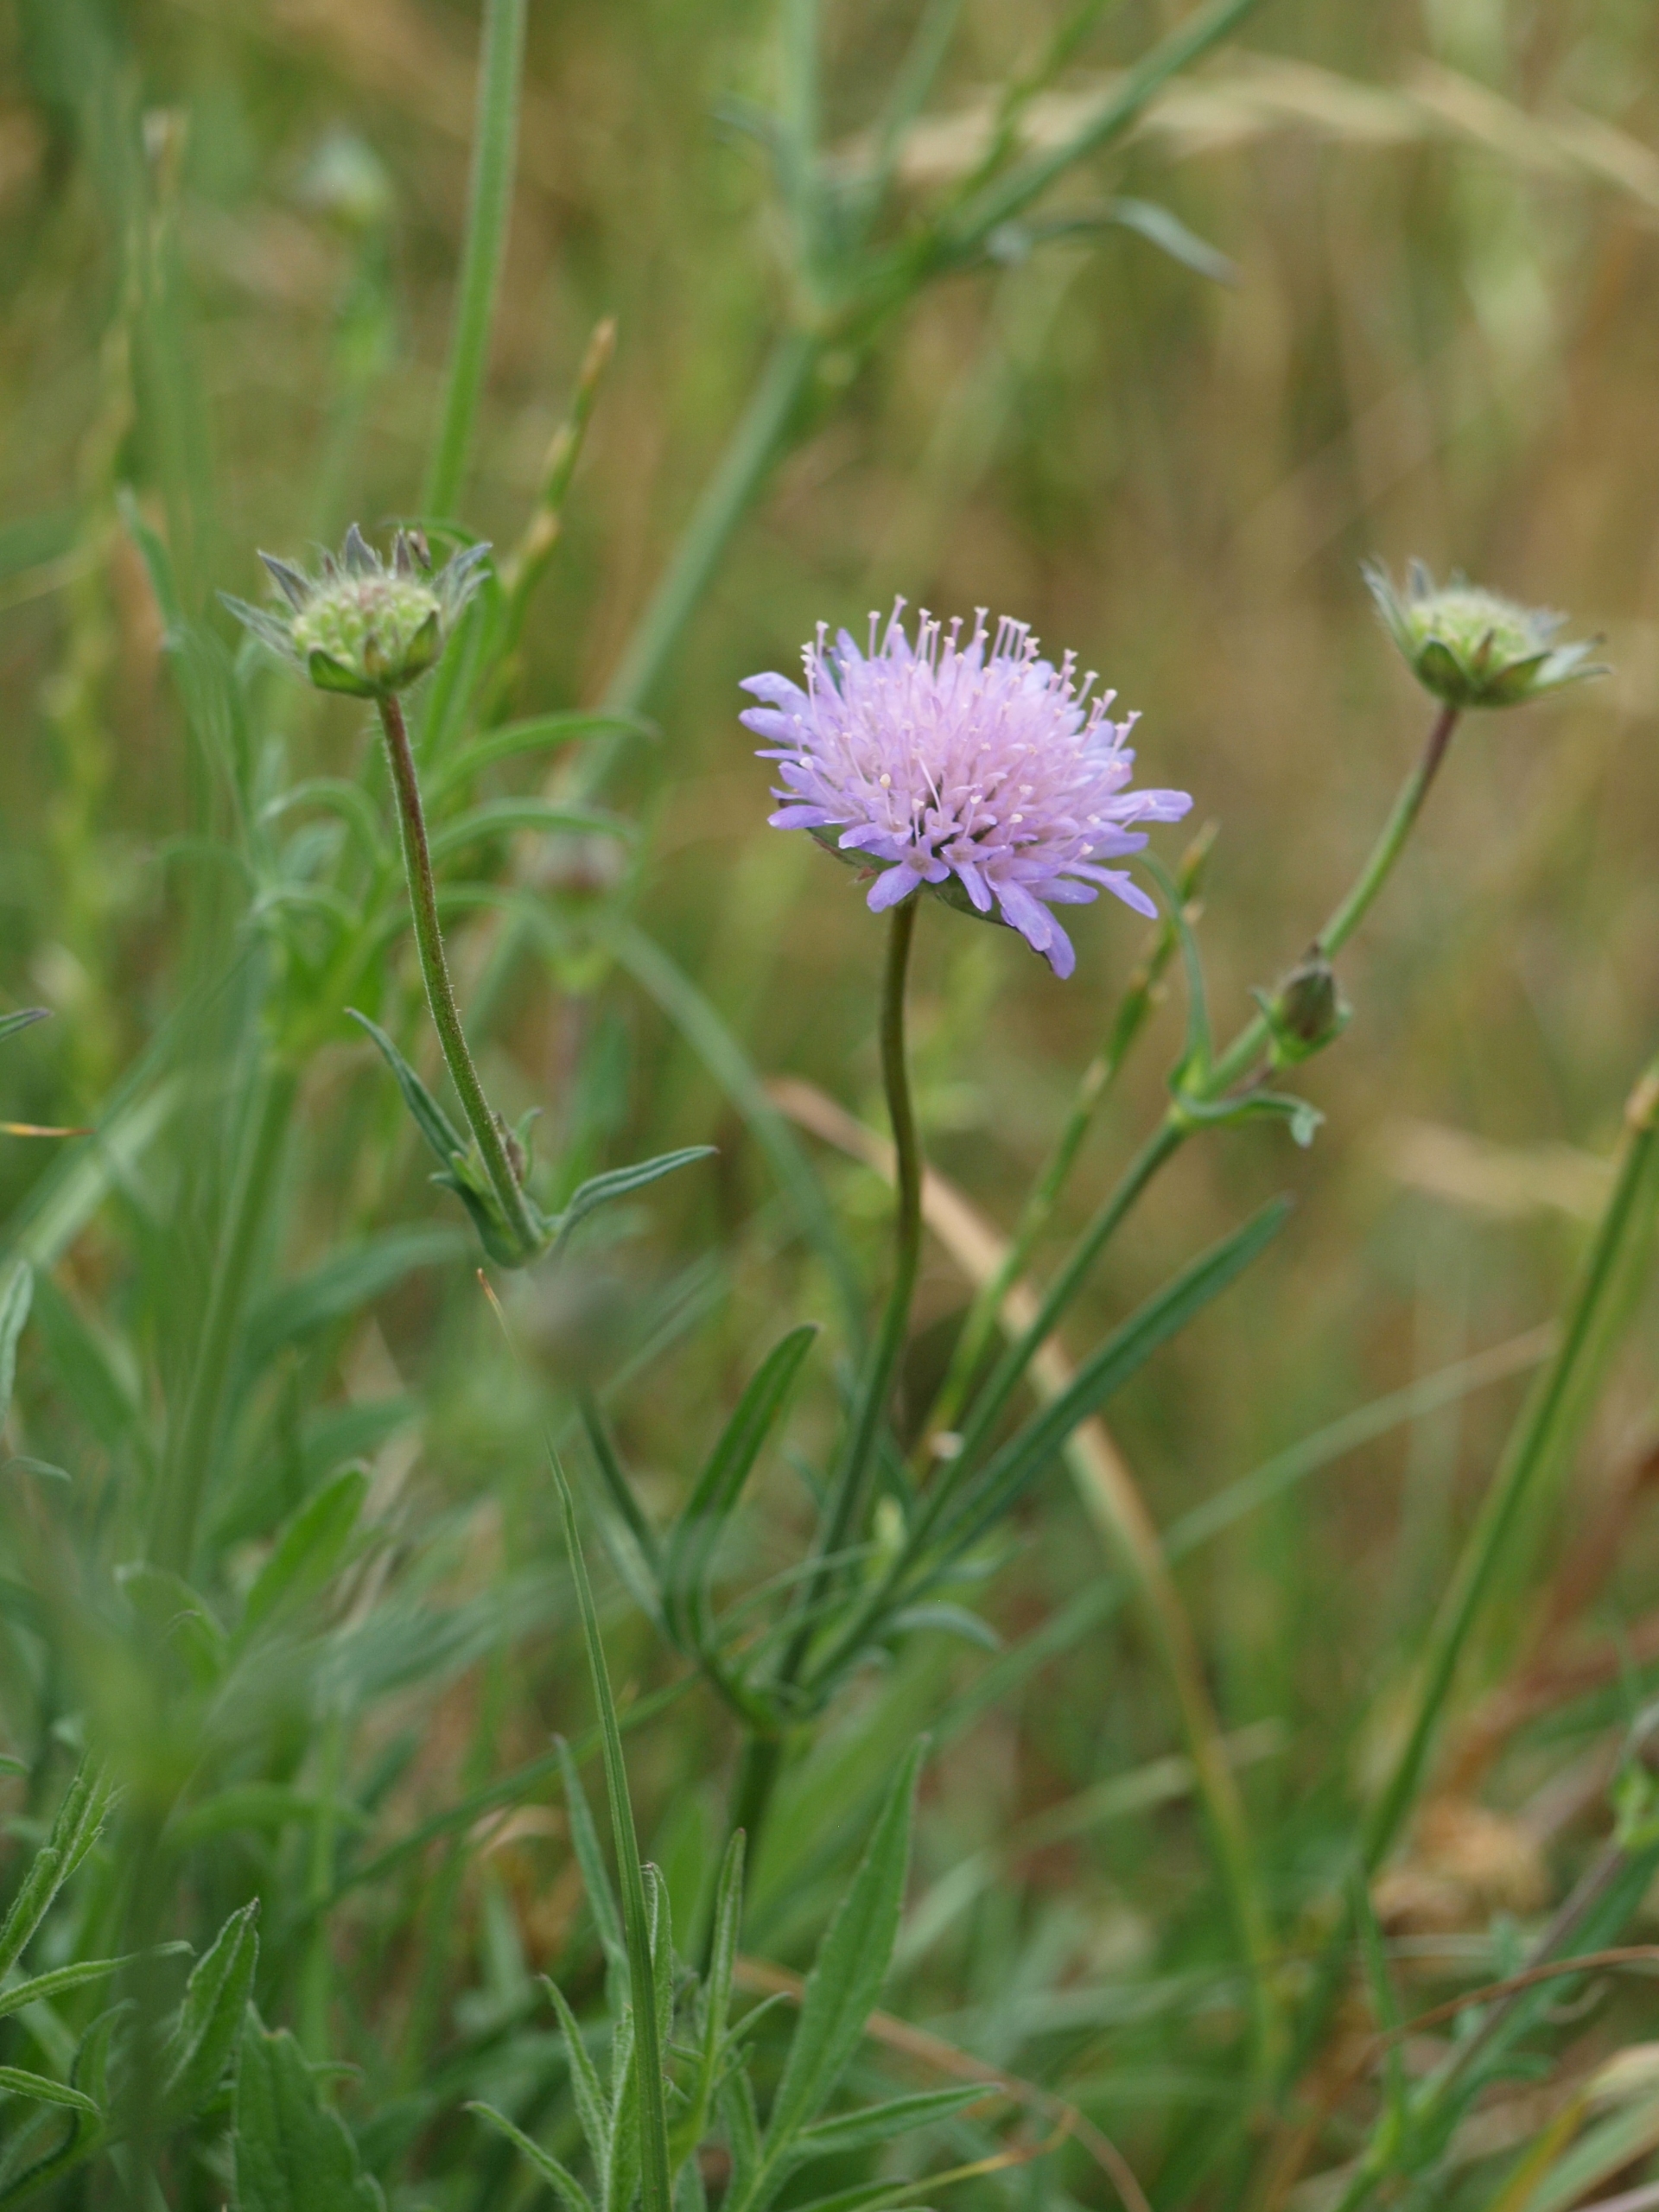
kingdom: Plantae
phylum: Tracheophyta
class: Magnoliopsida
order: Dipsacales
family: Caprifoliaceae
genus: Knautia
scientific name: Knautia arvensis
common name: Blåhat
